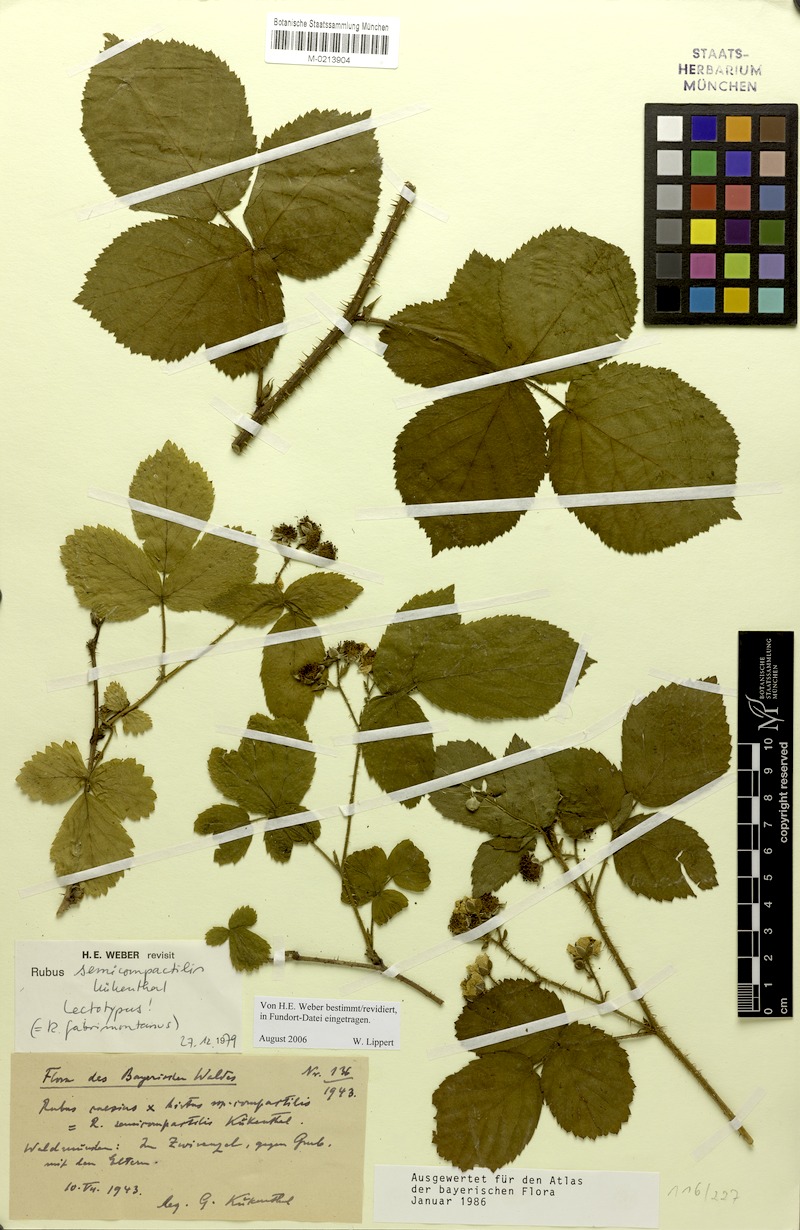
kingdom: Plantae
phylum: Tracheophyta
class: Magnoliopsida
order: Rosales
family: Rosaceae
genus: Rubus
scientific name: Rubus fabrimontanus
